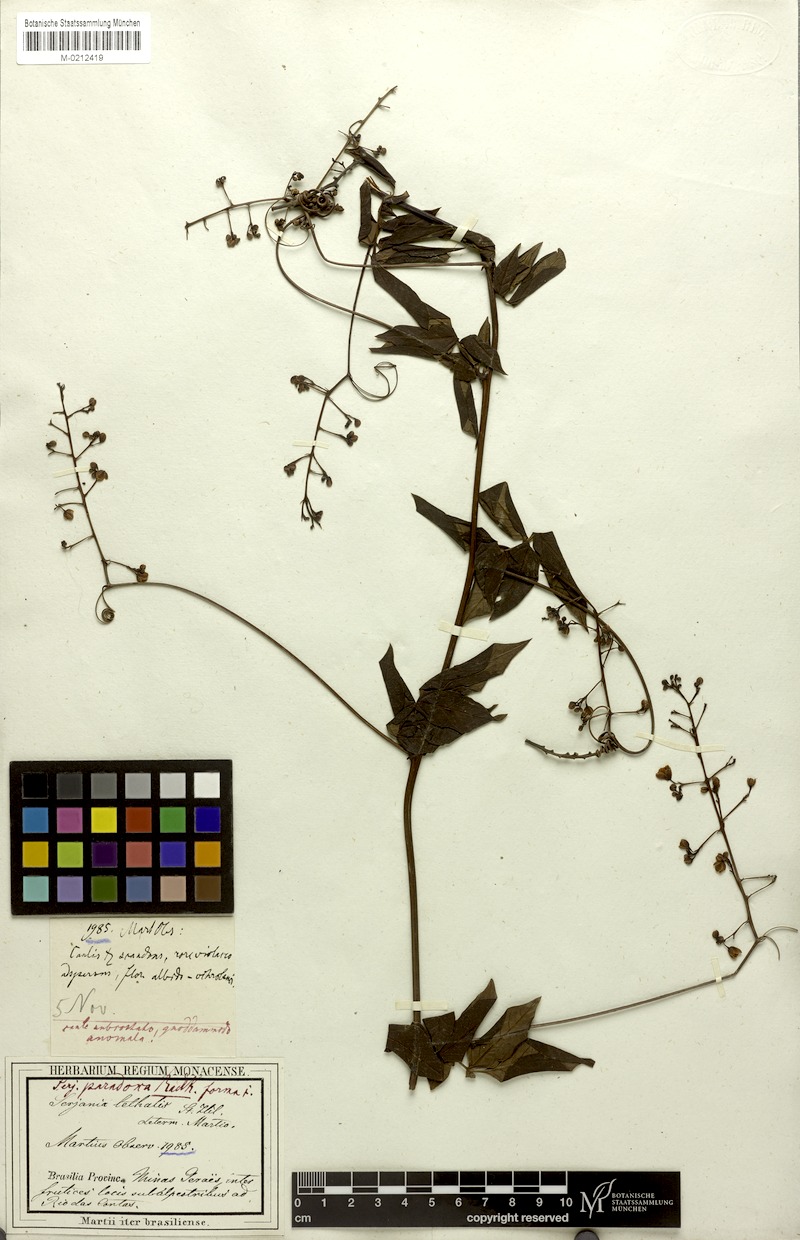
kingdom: Plantae
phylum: Tracheophyta
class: Magnoliopsida
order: Sapindales
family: Sapindaceae
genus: Serjania
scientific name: Serjania paradoxa
